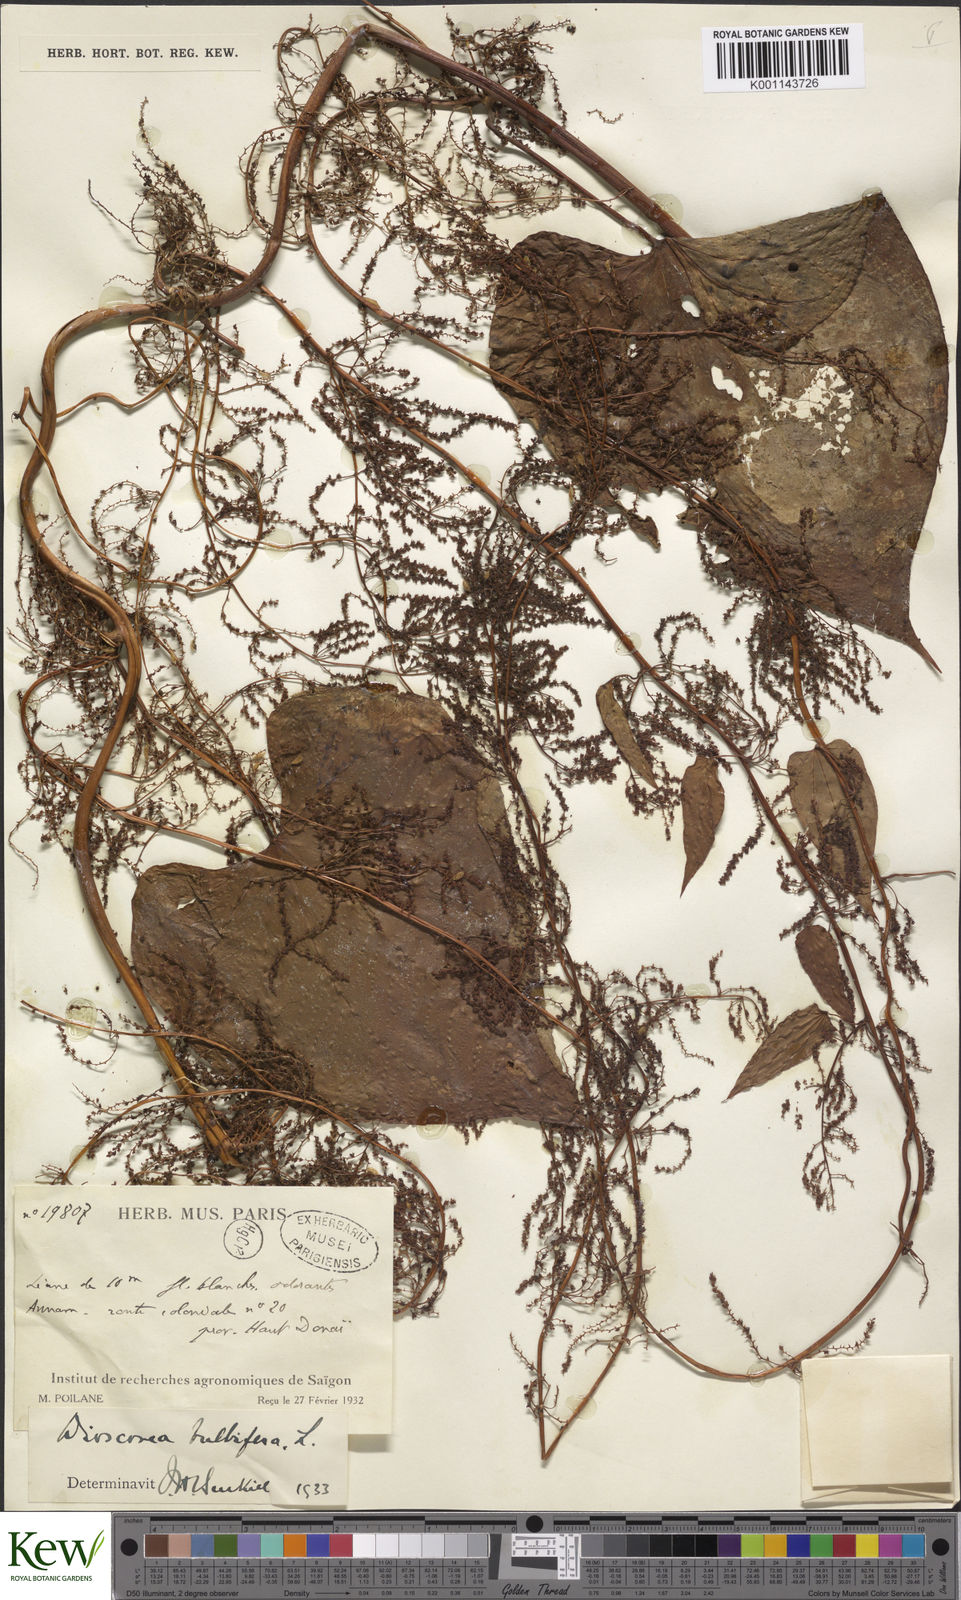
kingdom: Plantae
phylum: Tracheophyta
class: Liliopsida
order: Dioscoreales
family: Dioscoreaceae
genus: Dioscorea
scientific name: Dioscorea bulbifera
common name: Air yam
